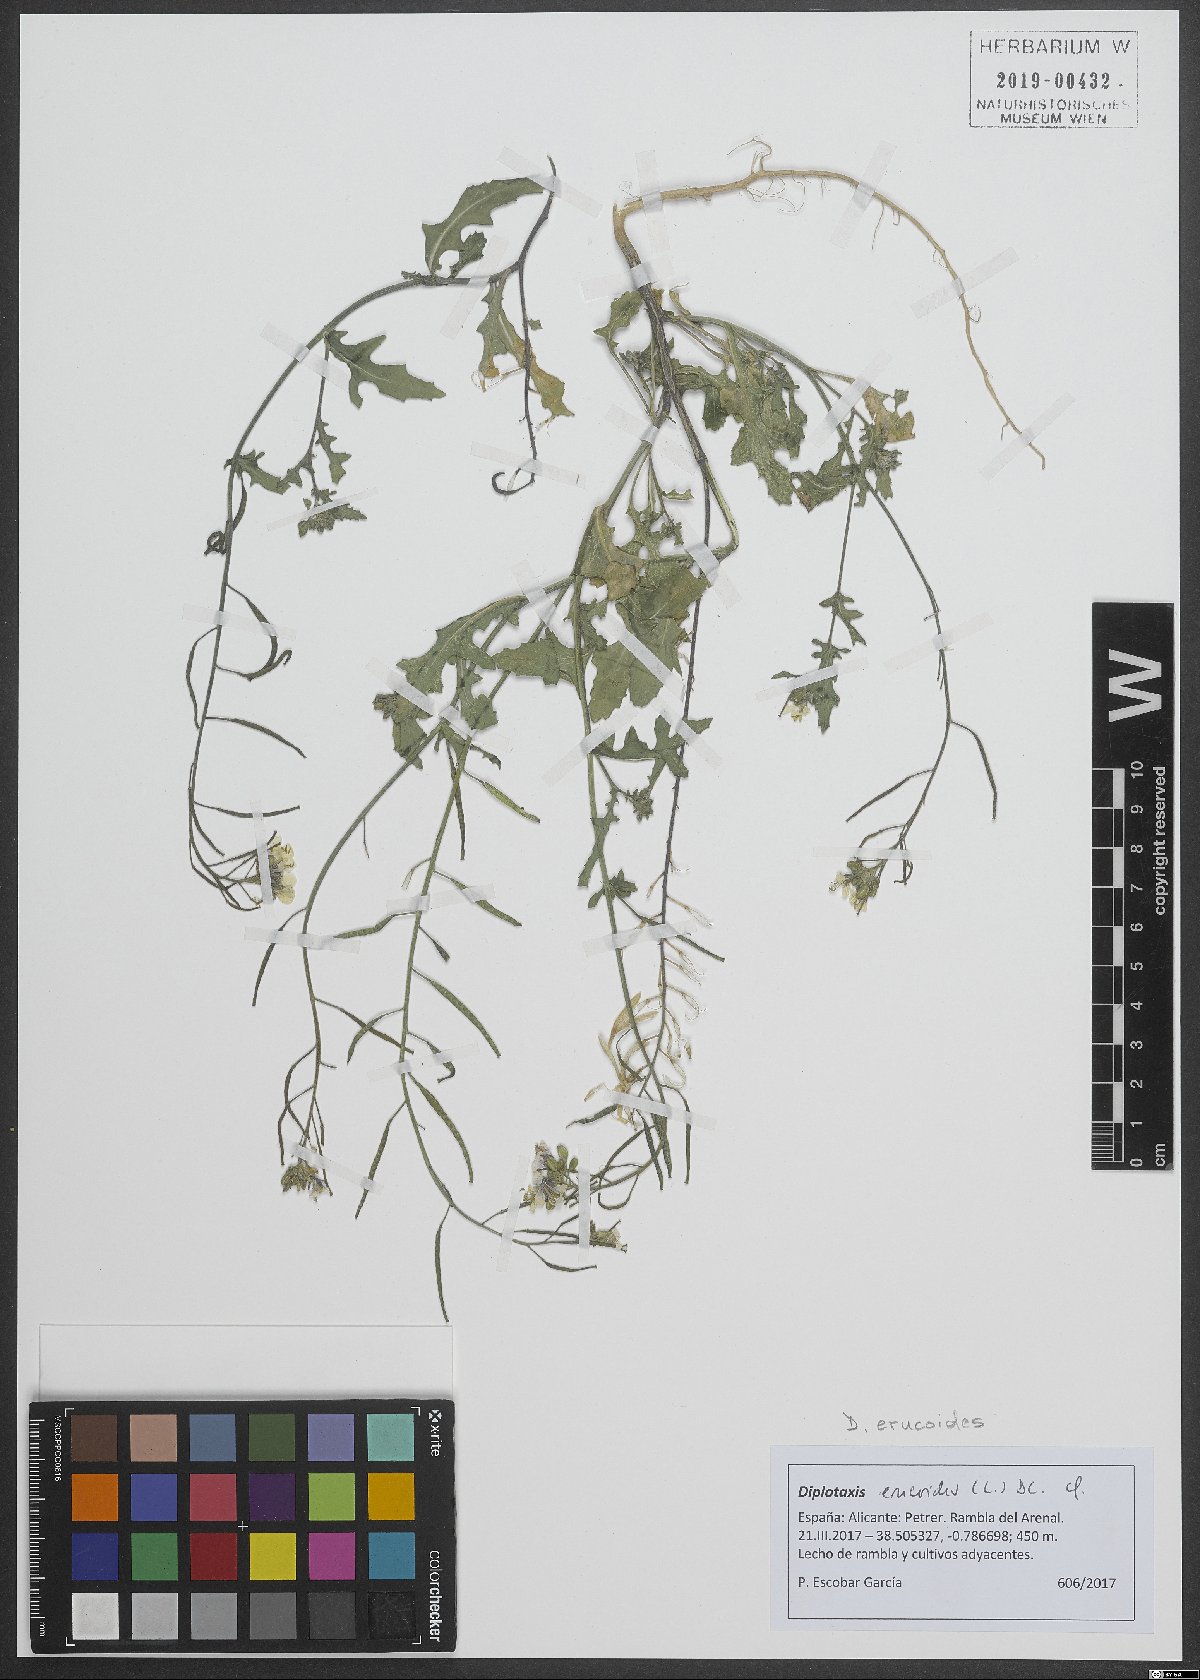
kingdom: Plantae
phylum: Tracheophyta
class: Magnoliopsida
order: Brassicales
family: Brassicaceae
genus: Diplotaxis
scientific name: Diplotaxis erucoides
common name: White rocket
